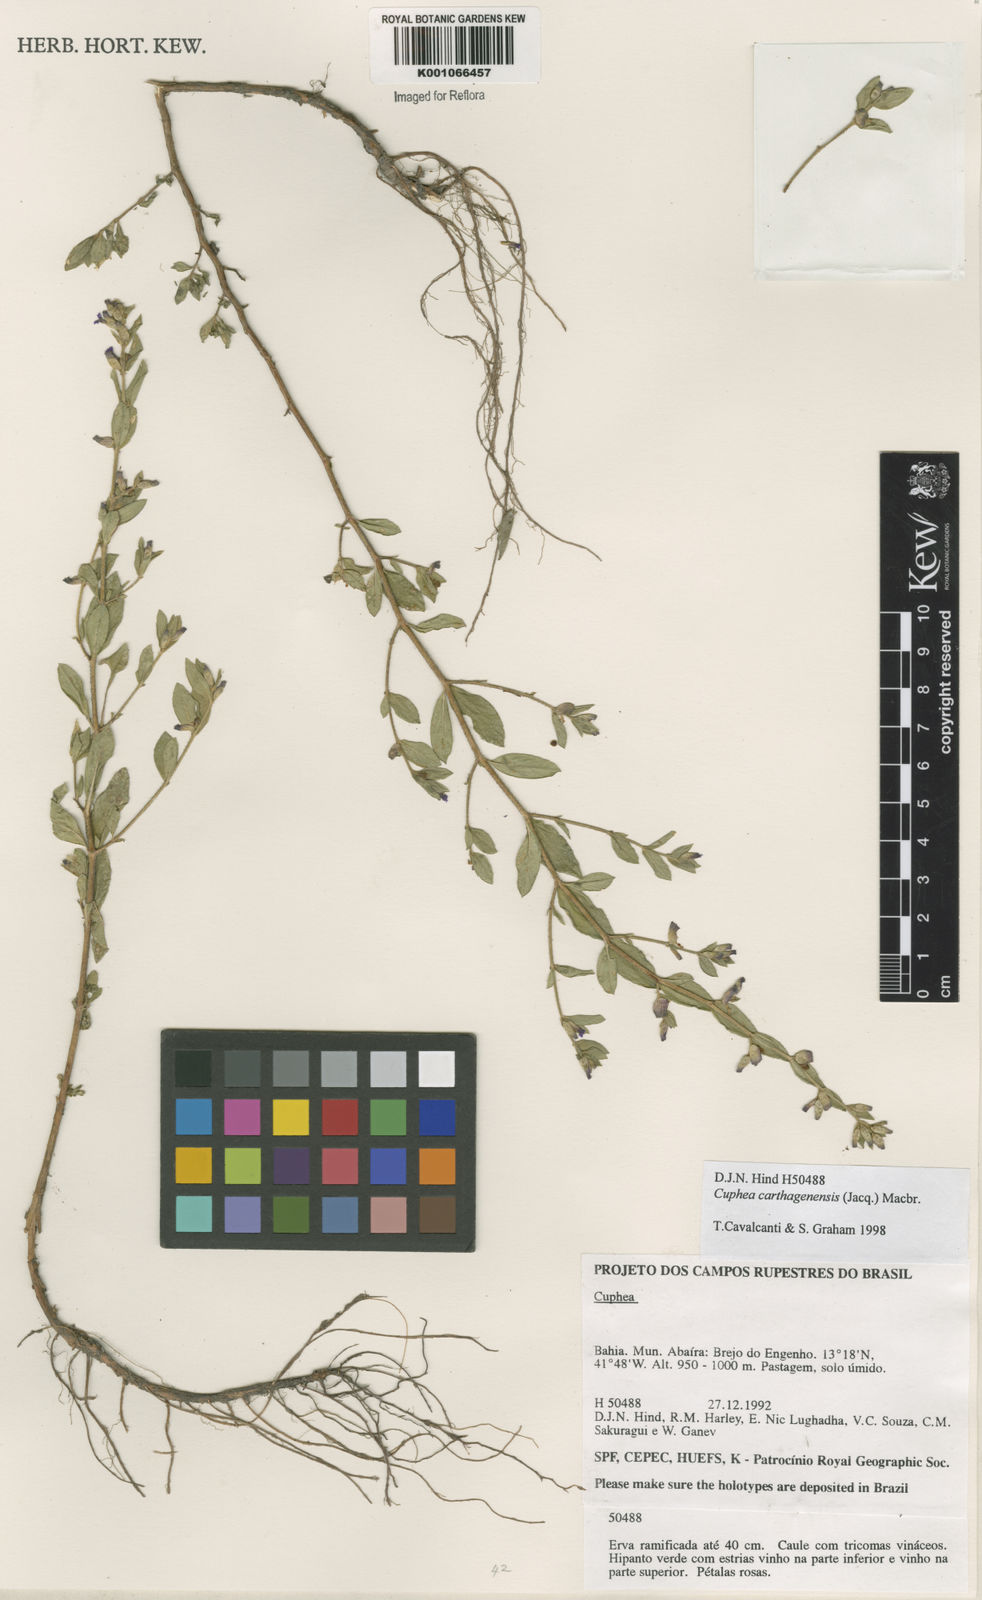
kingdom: Plantae
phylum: Tracheophyta
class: Magnoliopsida
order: Myrtales
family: Lythraceae
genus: Cuphea
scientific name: Cuphea carthagenensis
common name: Colombian waxweed
